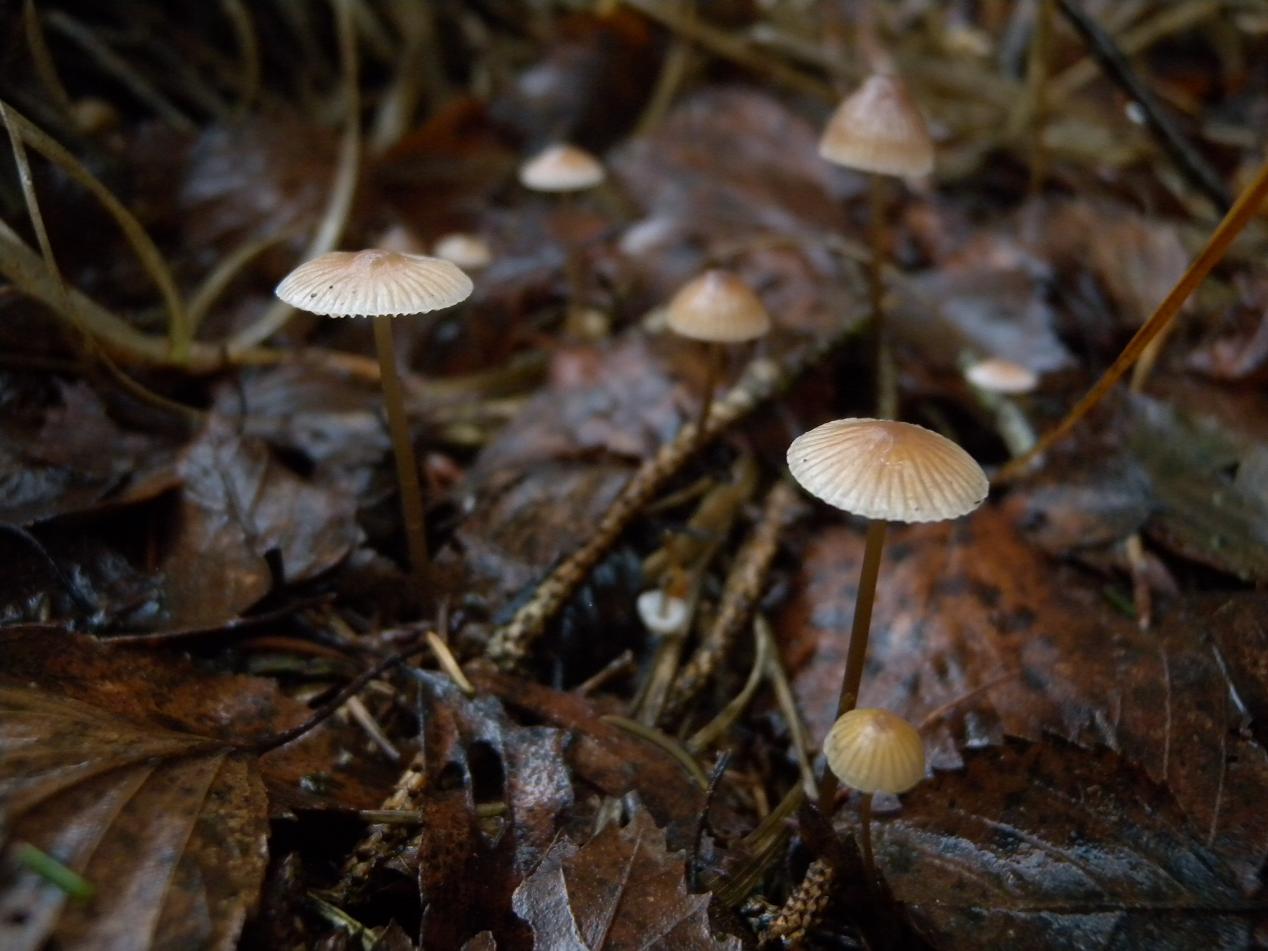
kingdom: Fungi
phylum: Basidiomycota
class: Agaricomycetes
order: Agaricales
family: Mycenaceae
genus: Mycena
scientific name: Mycena metata
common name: rødlig huesvamp
